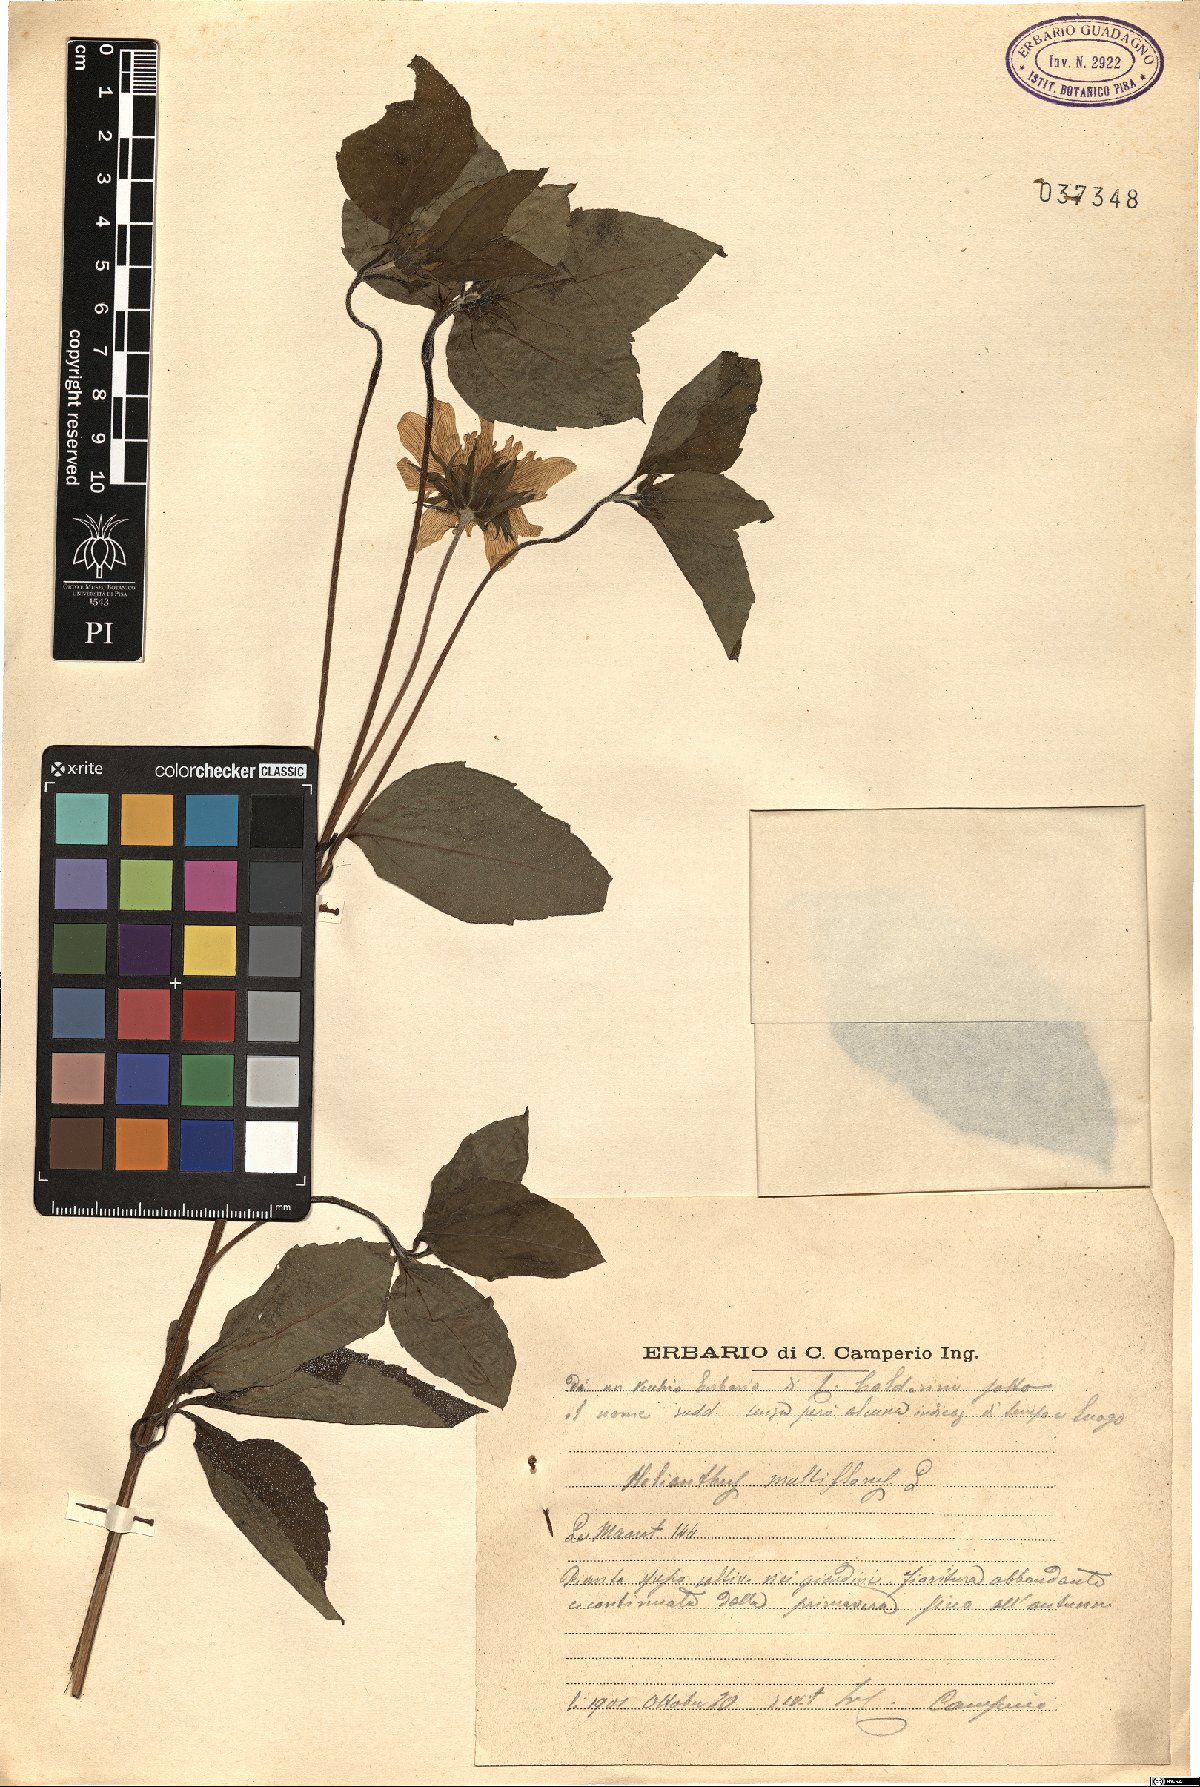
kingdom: Plantae
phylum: Tracheophyta
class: Magnoliopsida
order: Asterales
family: Asteraceae
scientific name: Asteraceae
